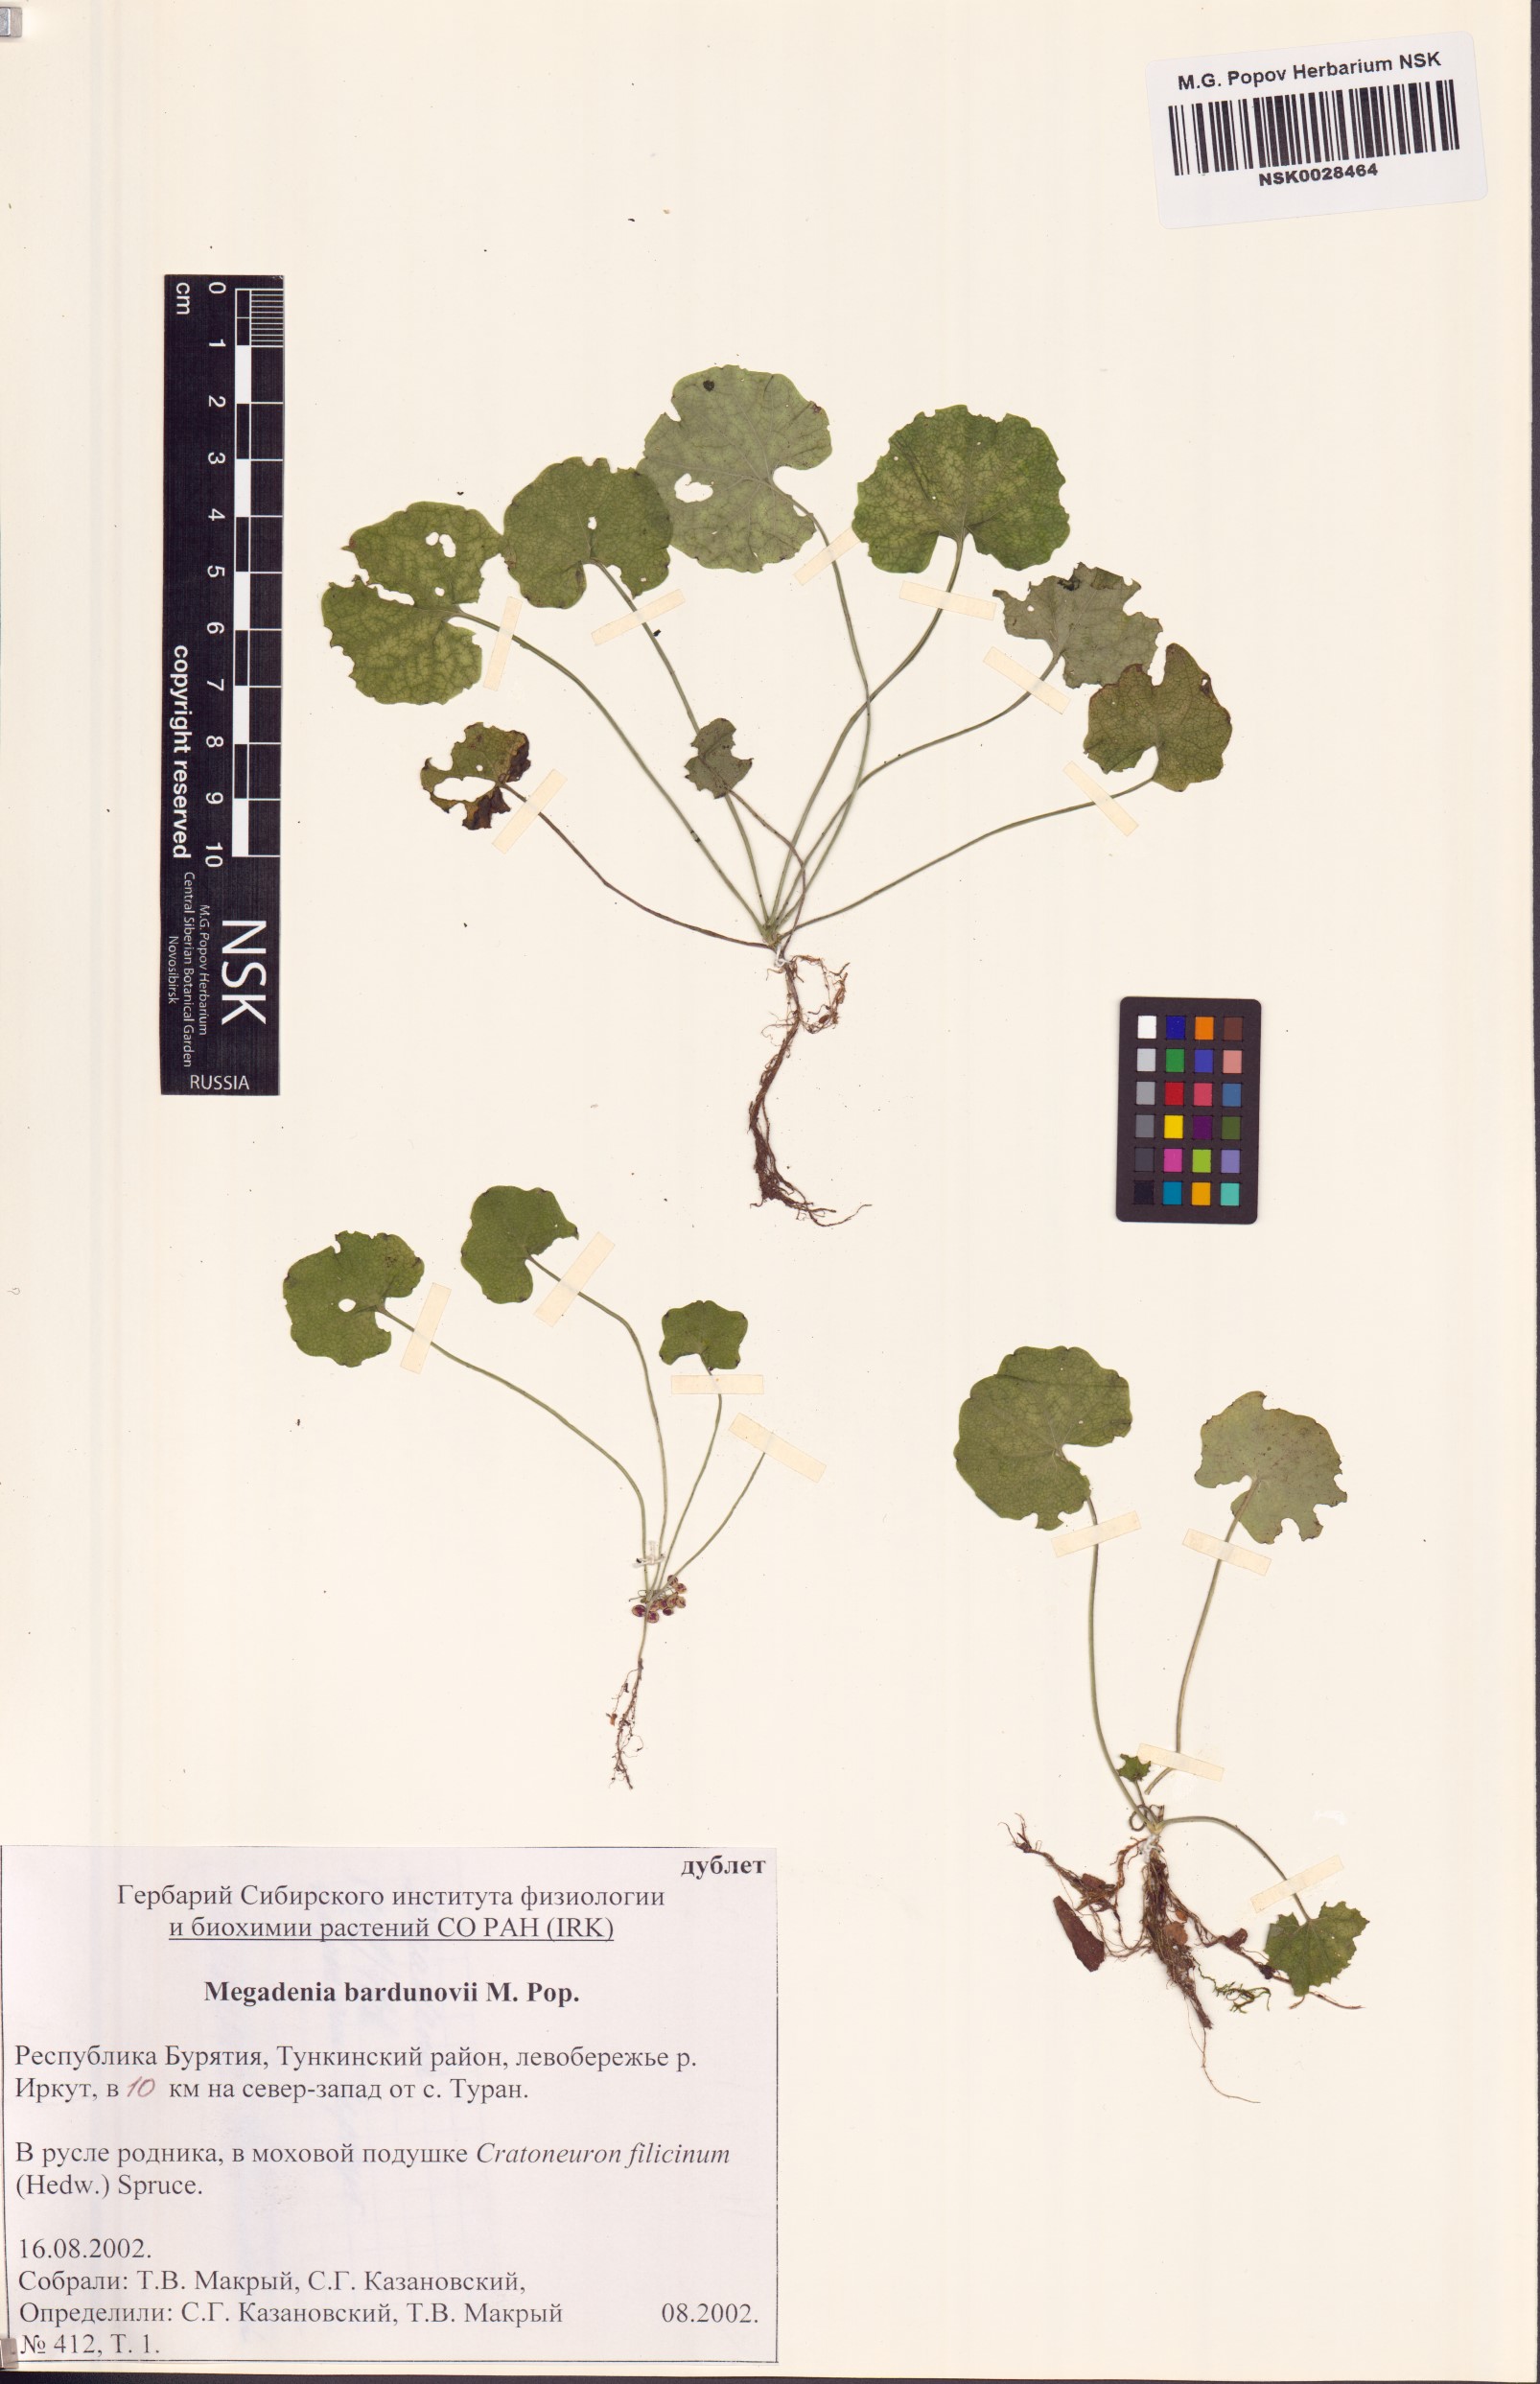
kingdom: Plantae
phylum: Tracheophyta
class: Magnoliopsida
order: Brassicales
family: Brassicaceae
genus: Megadenia
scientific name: Megadenia pygmaea
